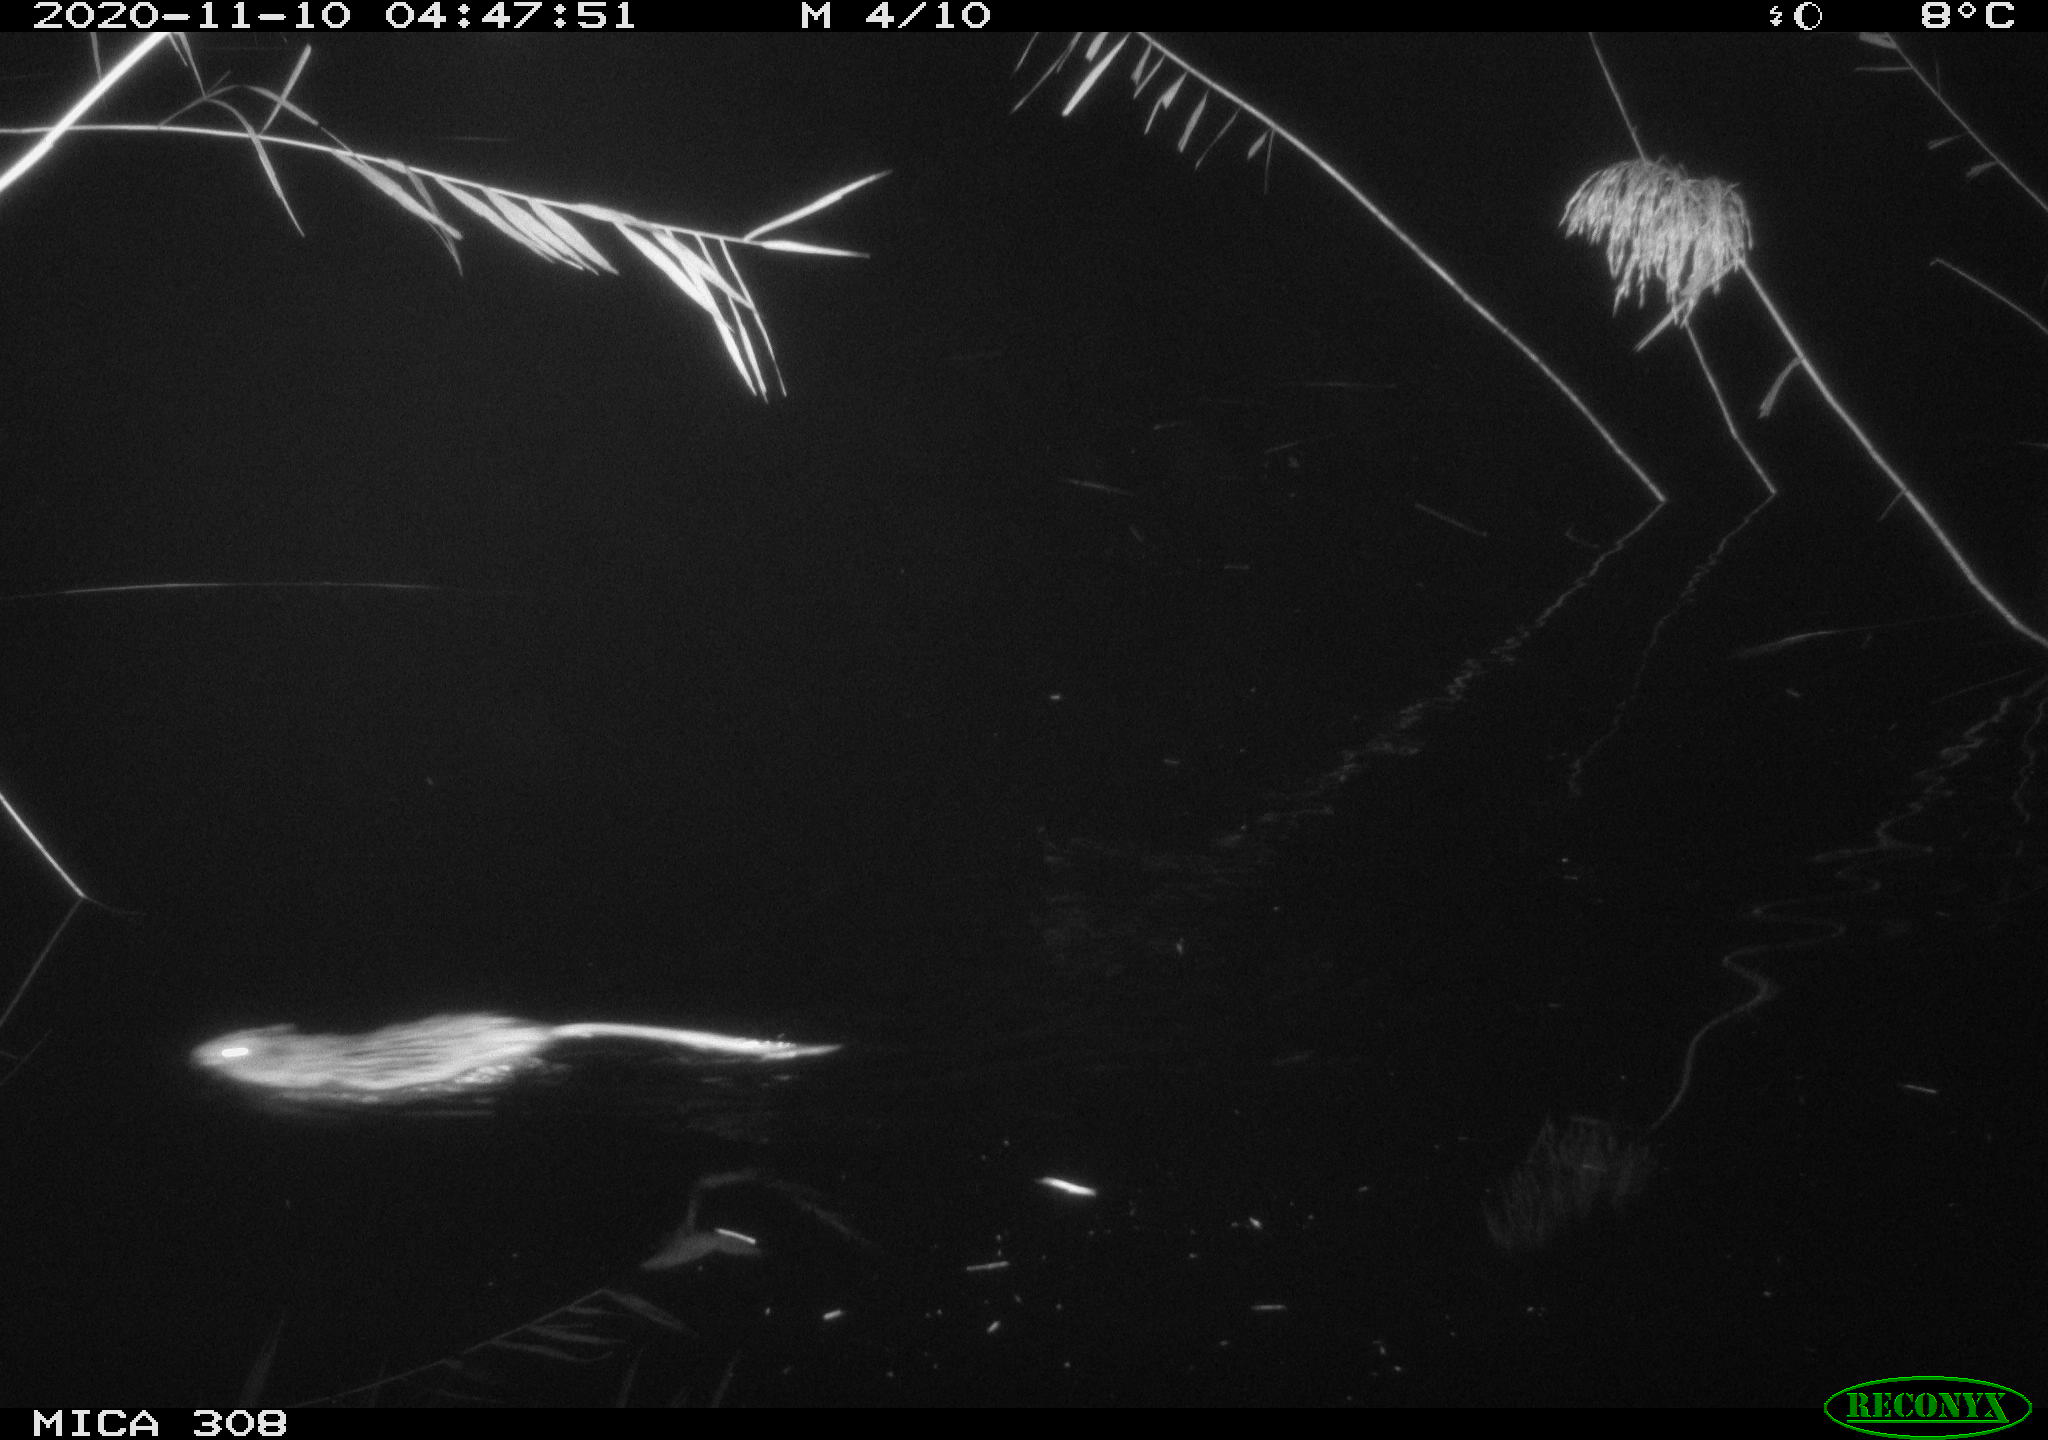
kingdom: Animalia
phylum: Chordata
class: Mammalia
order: Rodentia
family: Cricetidae
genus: Ondatra
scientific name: Ondatra zibethicus
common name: Muskrat
